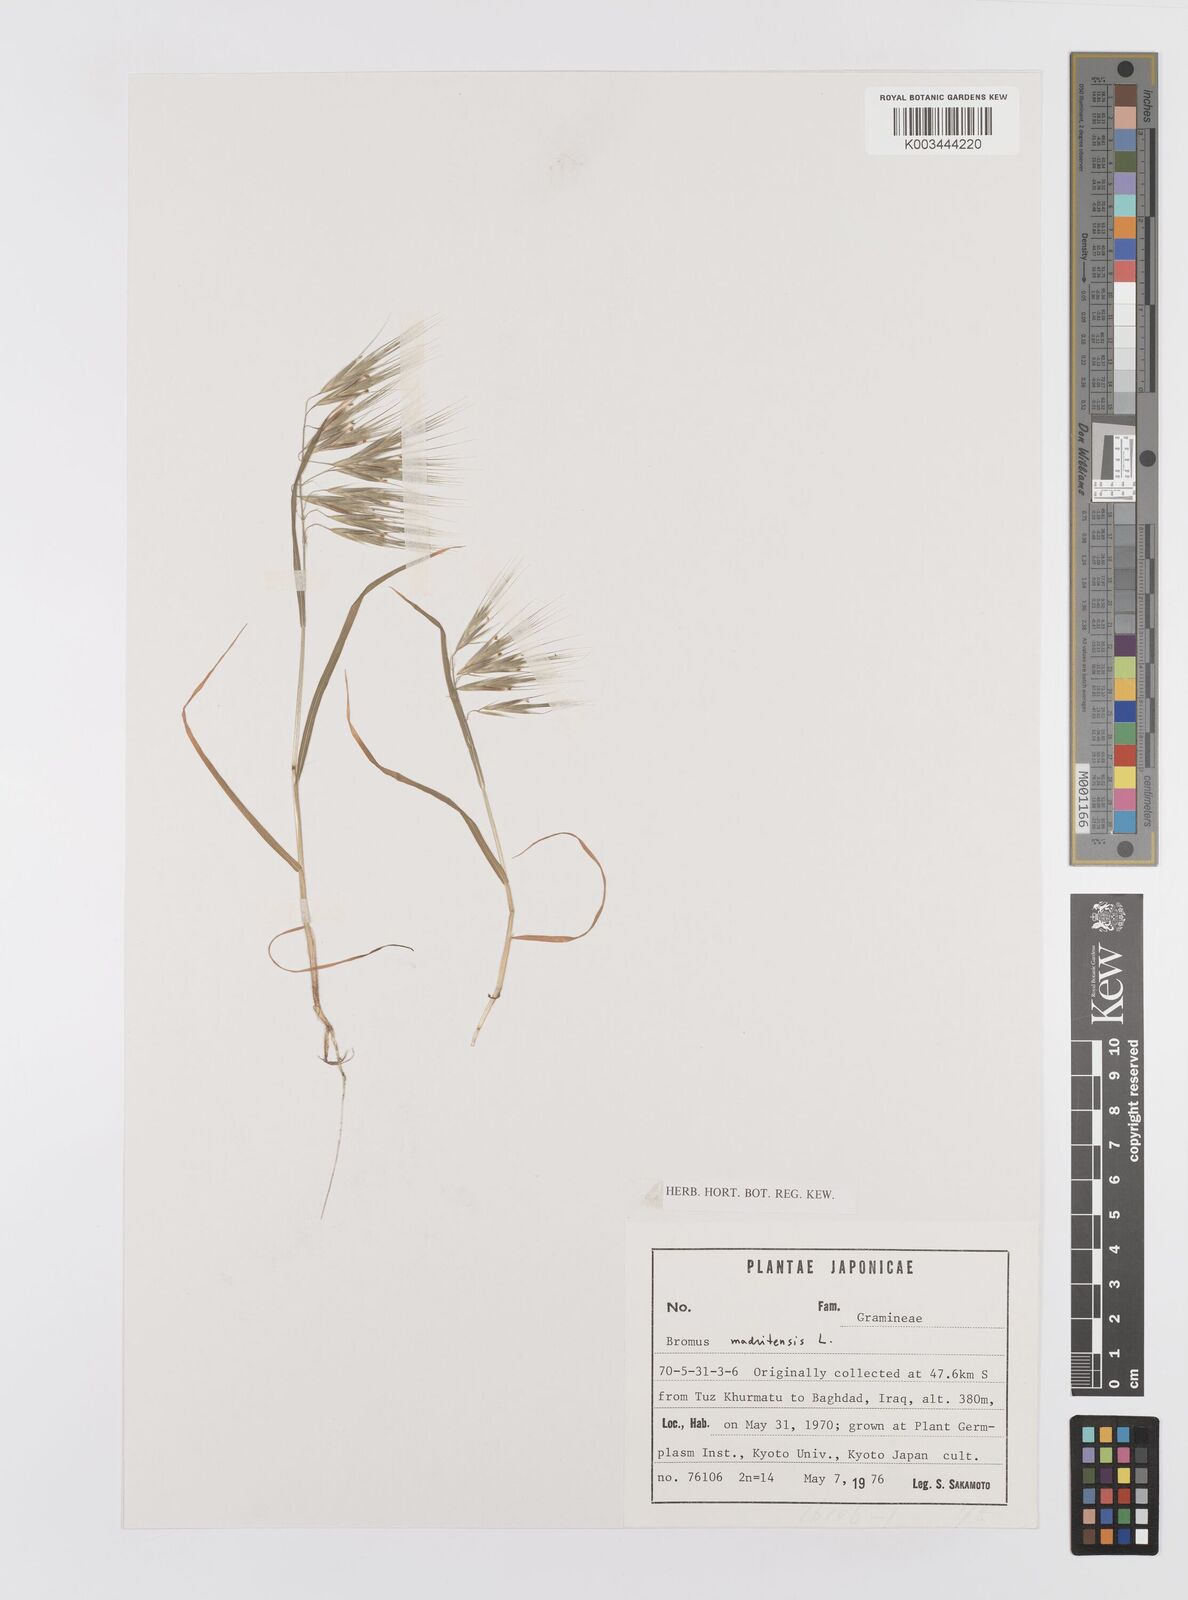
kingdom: Plantae
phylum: Tracheophyta
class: Liliopsida
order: Poales
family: Poaceae
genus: Bromus
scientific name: Bromus madritensis
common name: Compact brome
